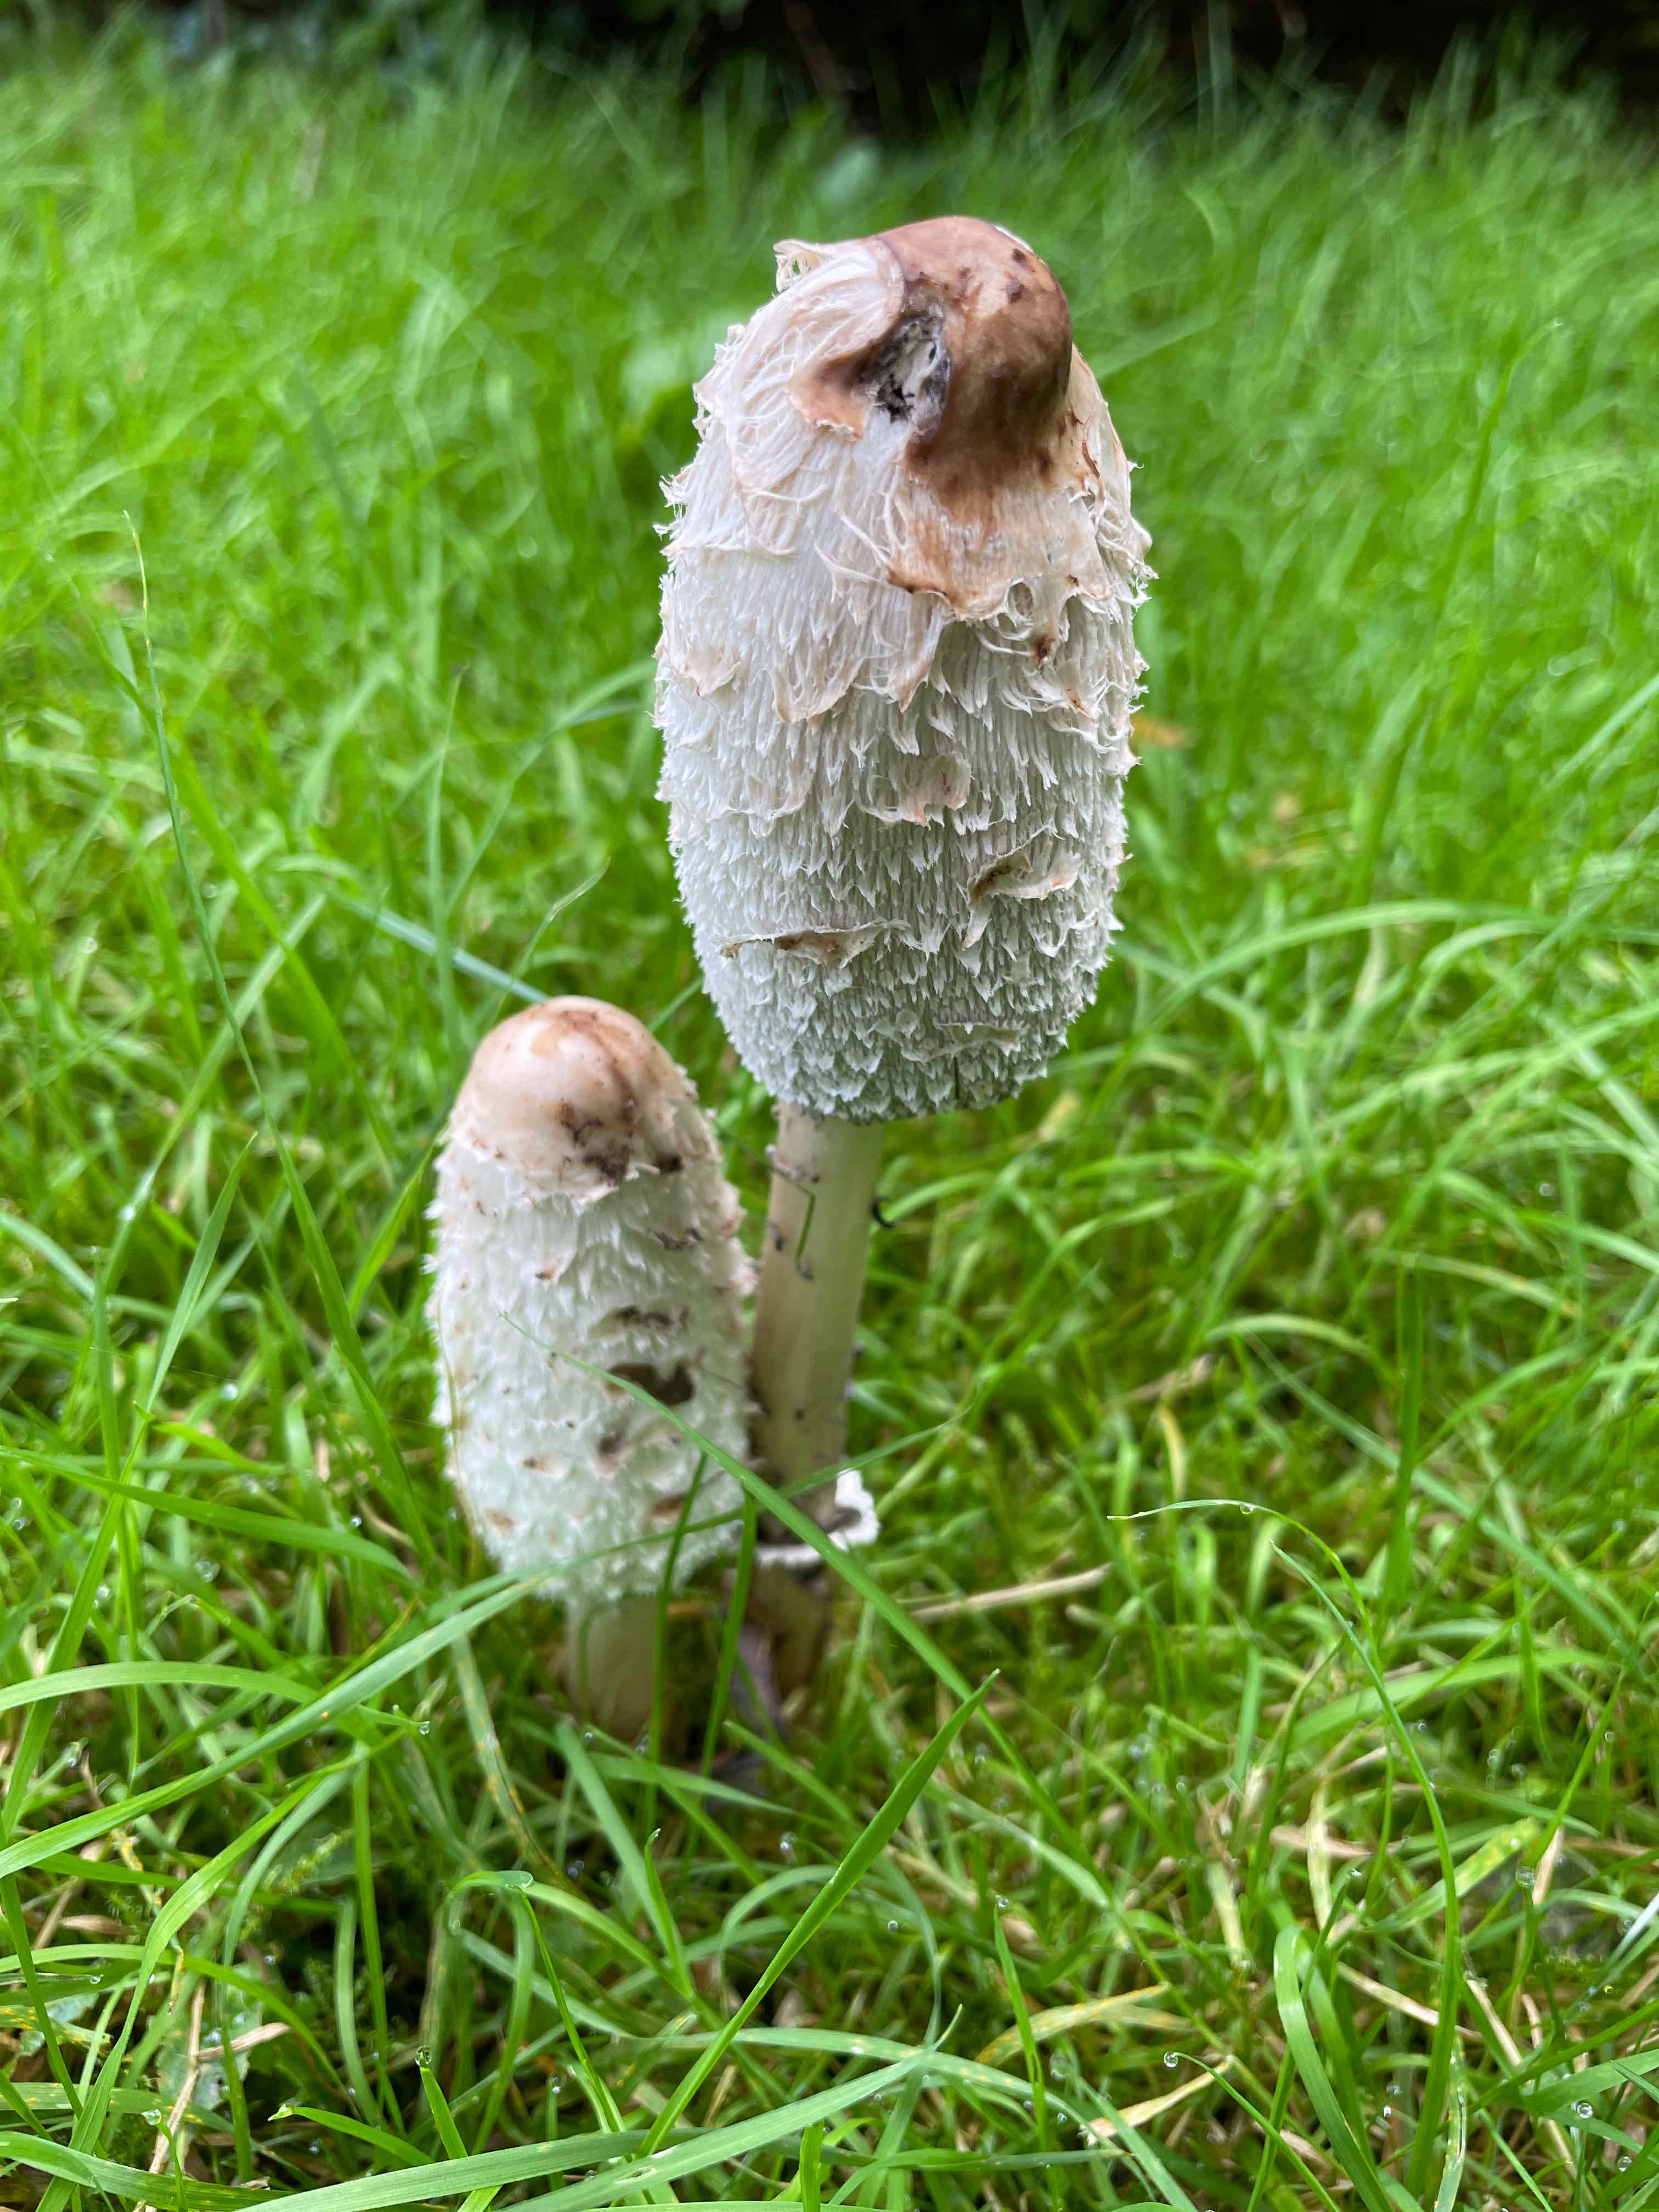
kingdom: Fungi
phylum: Basidiomycota
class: Agaricomycetes
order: Agaricales
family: Agaricaceae
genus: Coprinus
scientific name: Coprinus comatus
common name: stor parykhat
